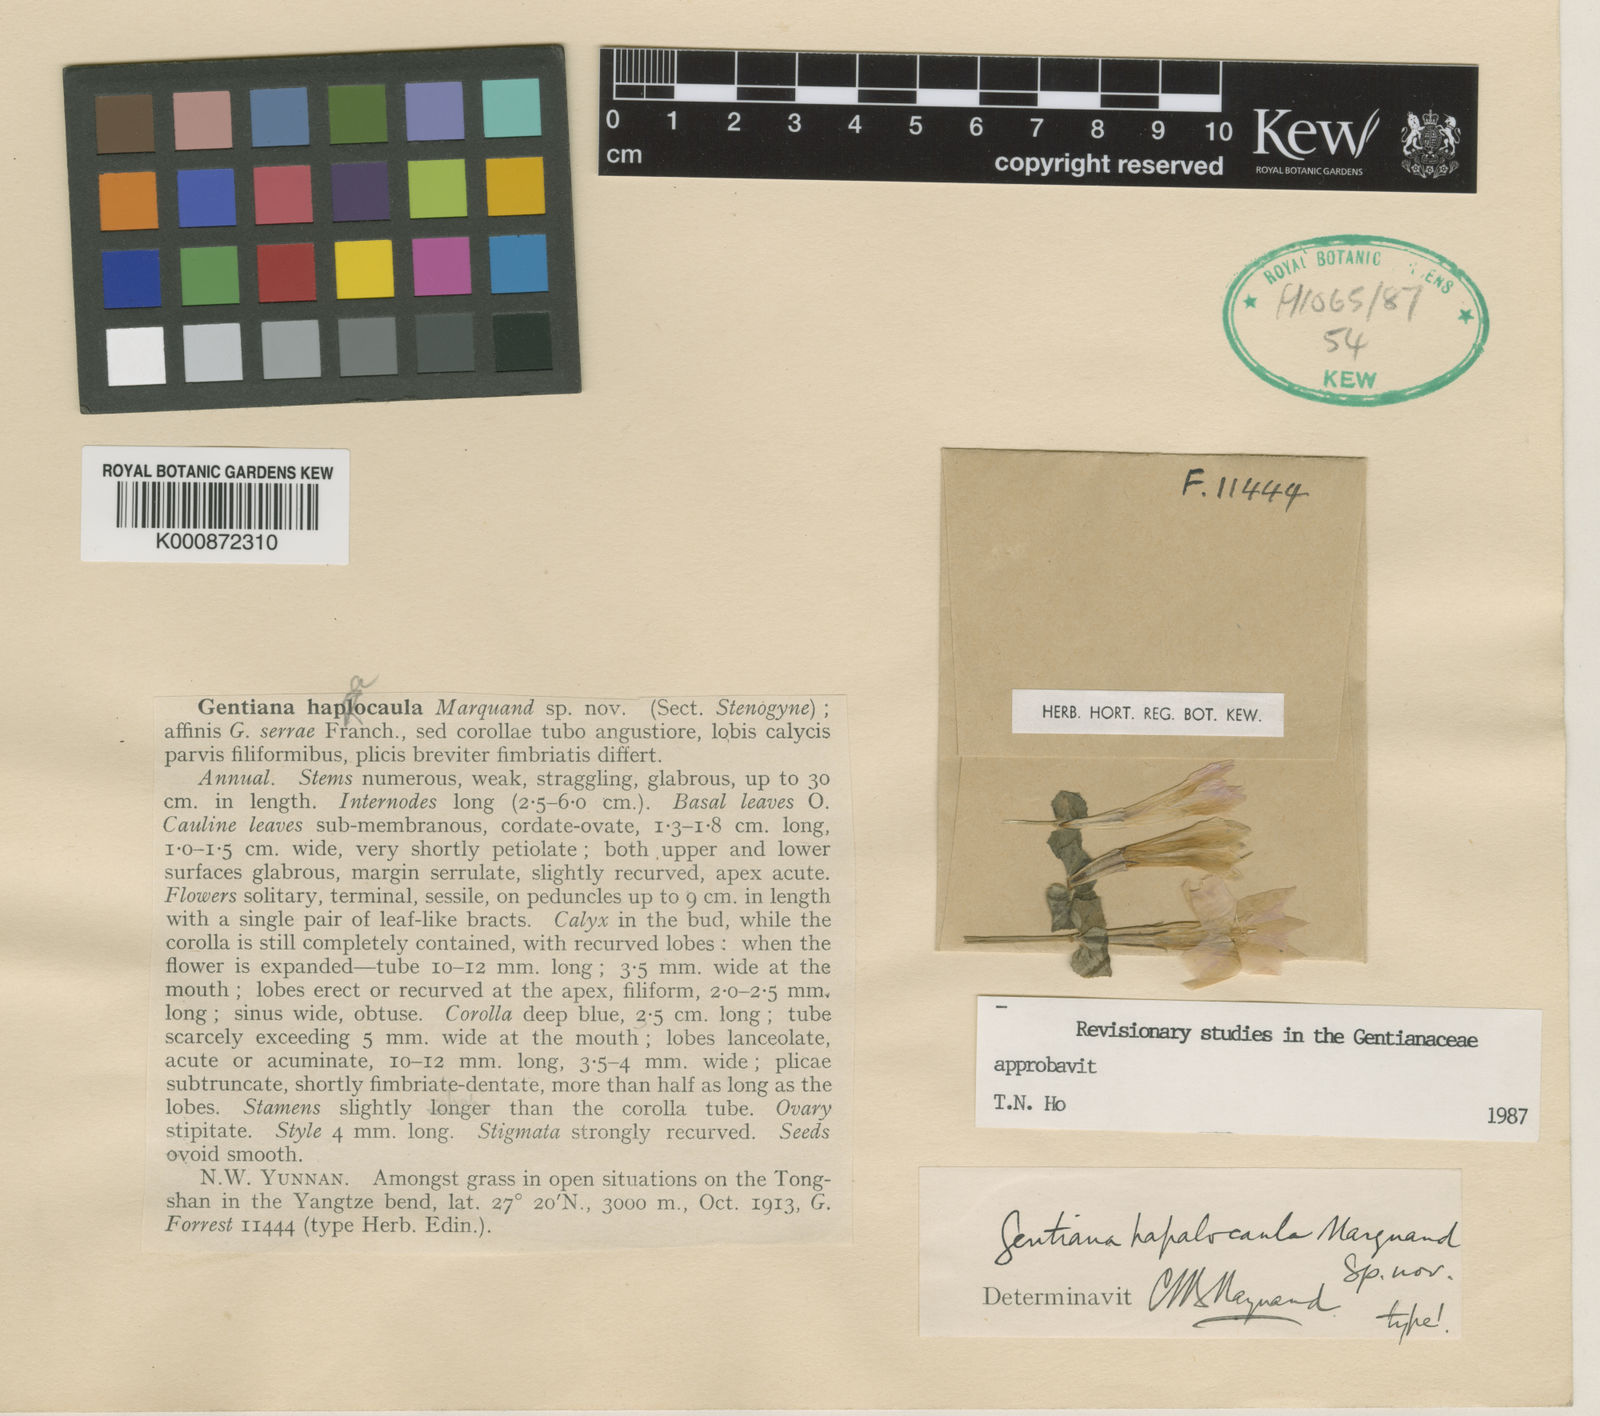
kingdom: Plantae
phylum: Tracheophyta
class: Magnoliopsida
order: Gentianales
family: Gentianaceae
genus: Metagentiana
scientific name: Metagentiana
